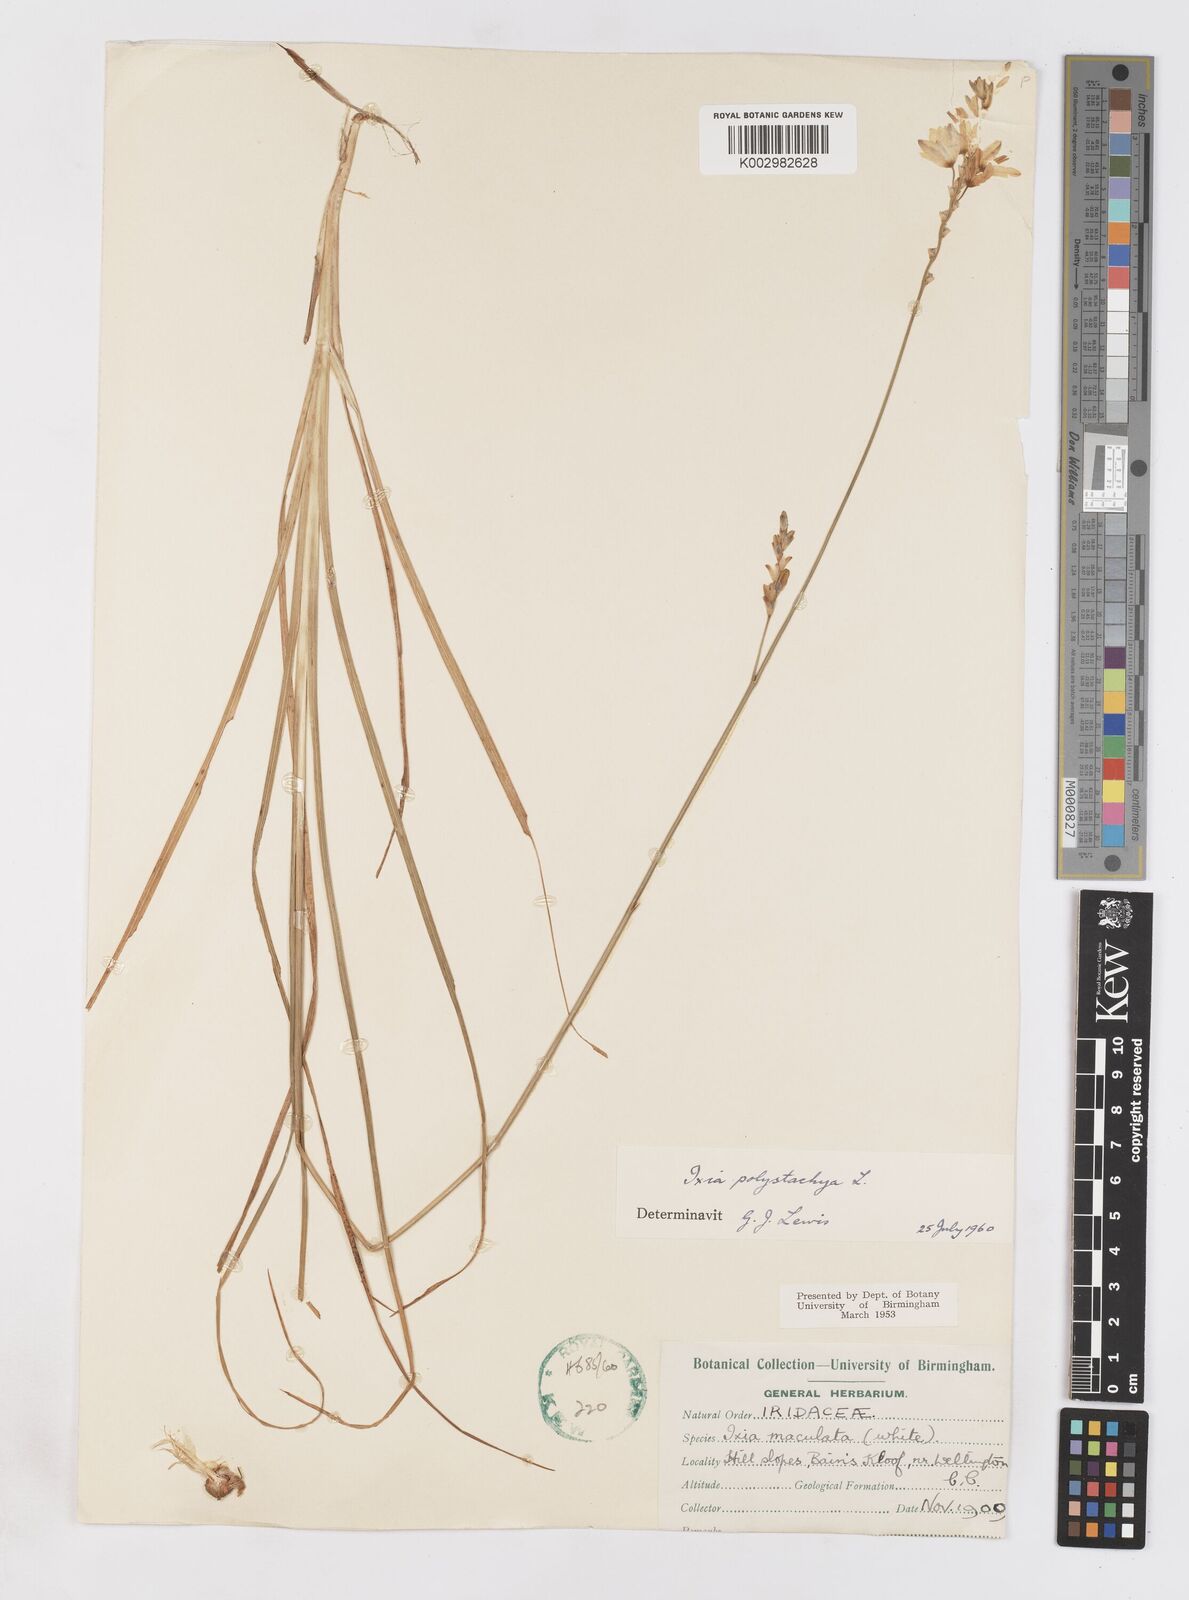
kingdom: Plantae
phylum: Tracheophyta
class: Liliopsida
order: Asparagales
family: Iridaceae
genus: Ixia
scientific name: Ixia polystachya
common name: White-and-yellow-flower cornlily
